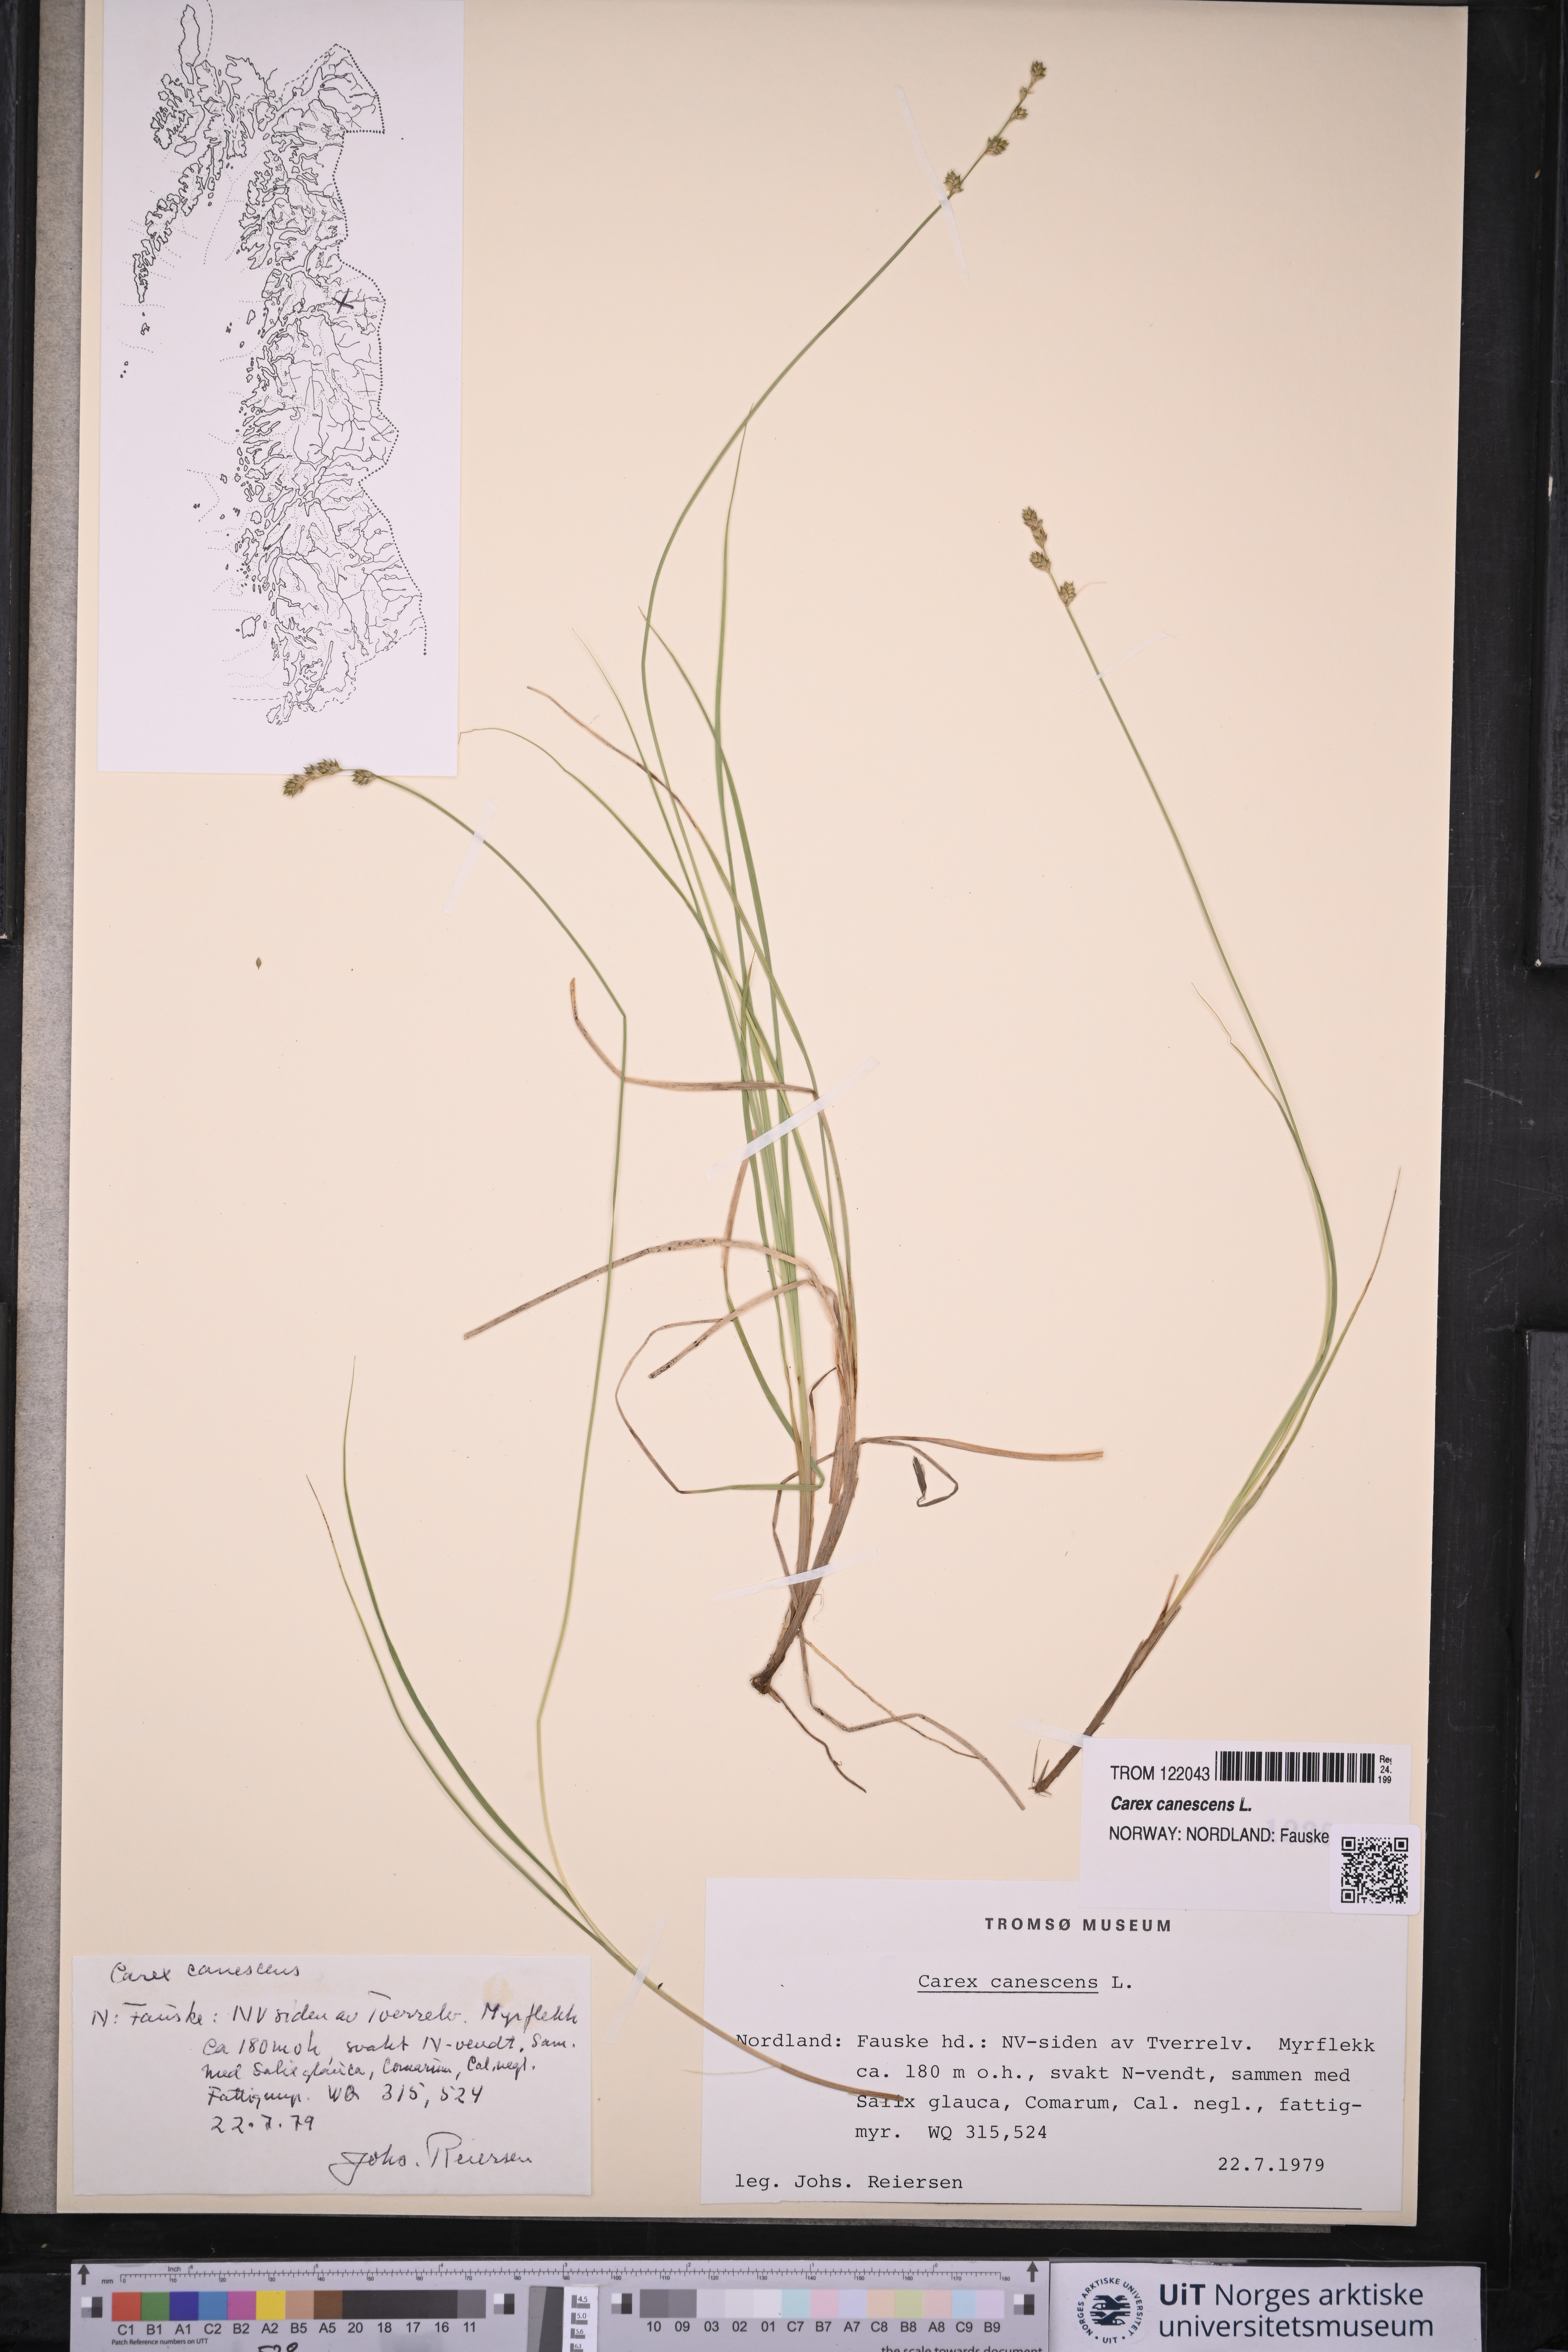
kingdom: Plantae
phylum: Tracheophyta
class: Liliopsida
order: Poales
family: Cyperaceae
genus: Carex
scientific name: Carex canescens
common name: White sedge
